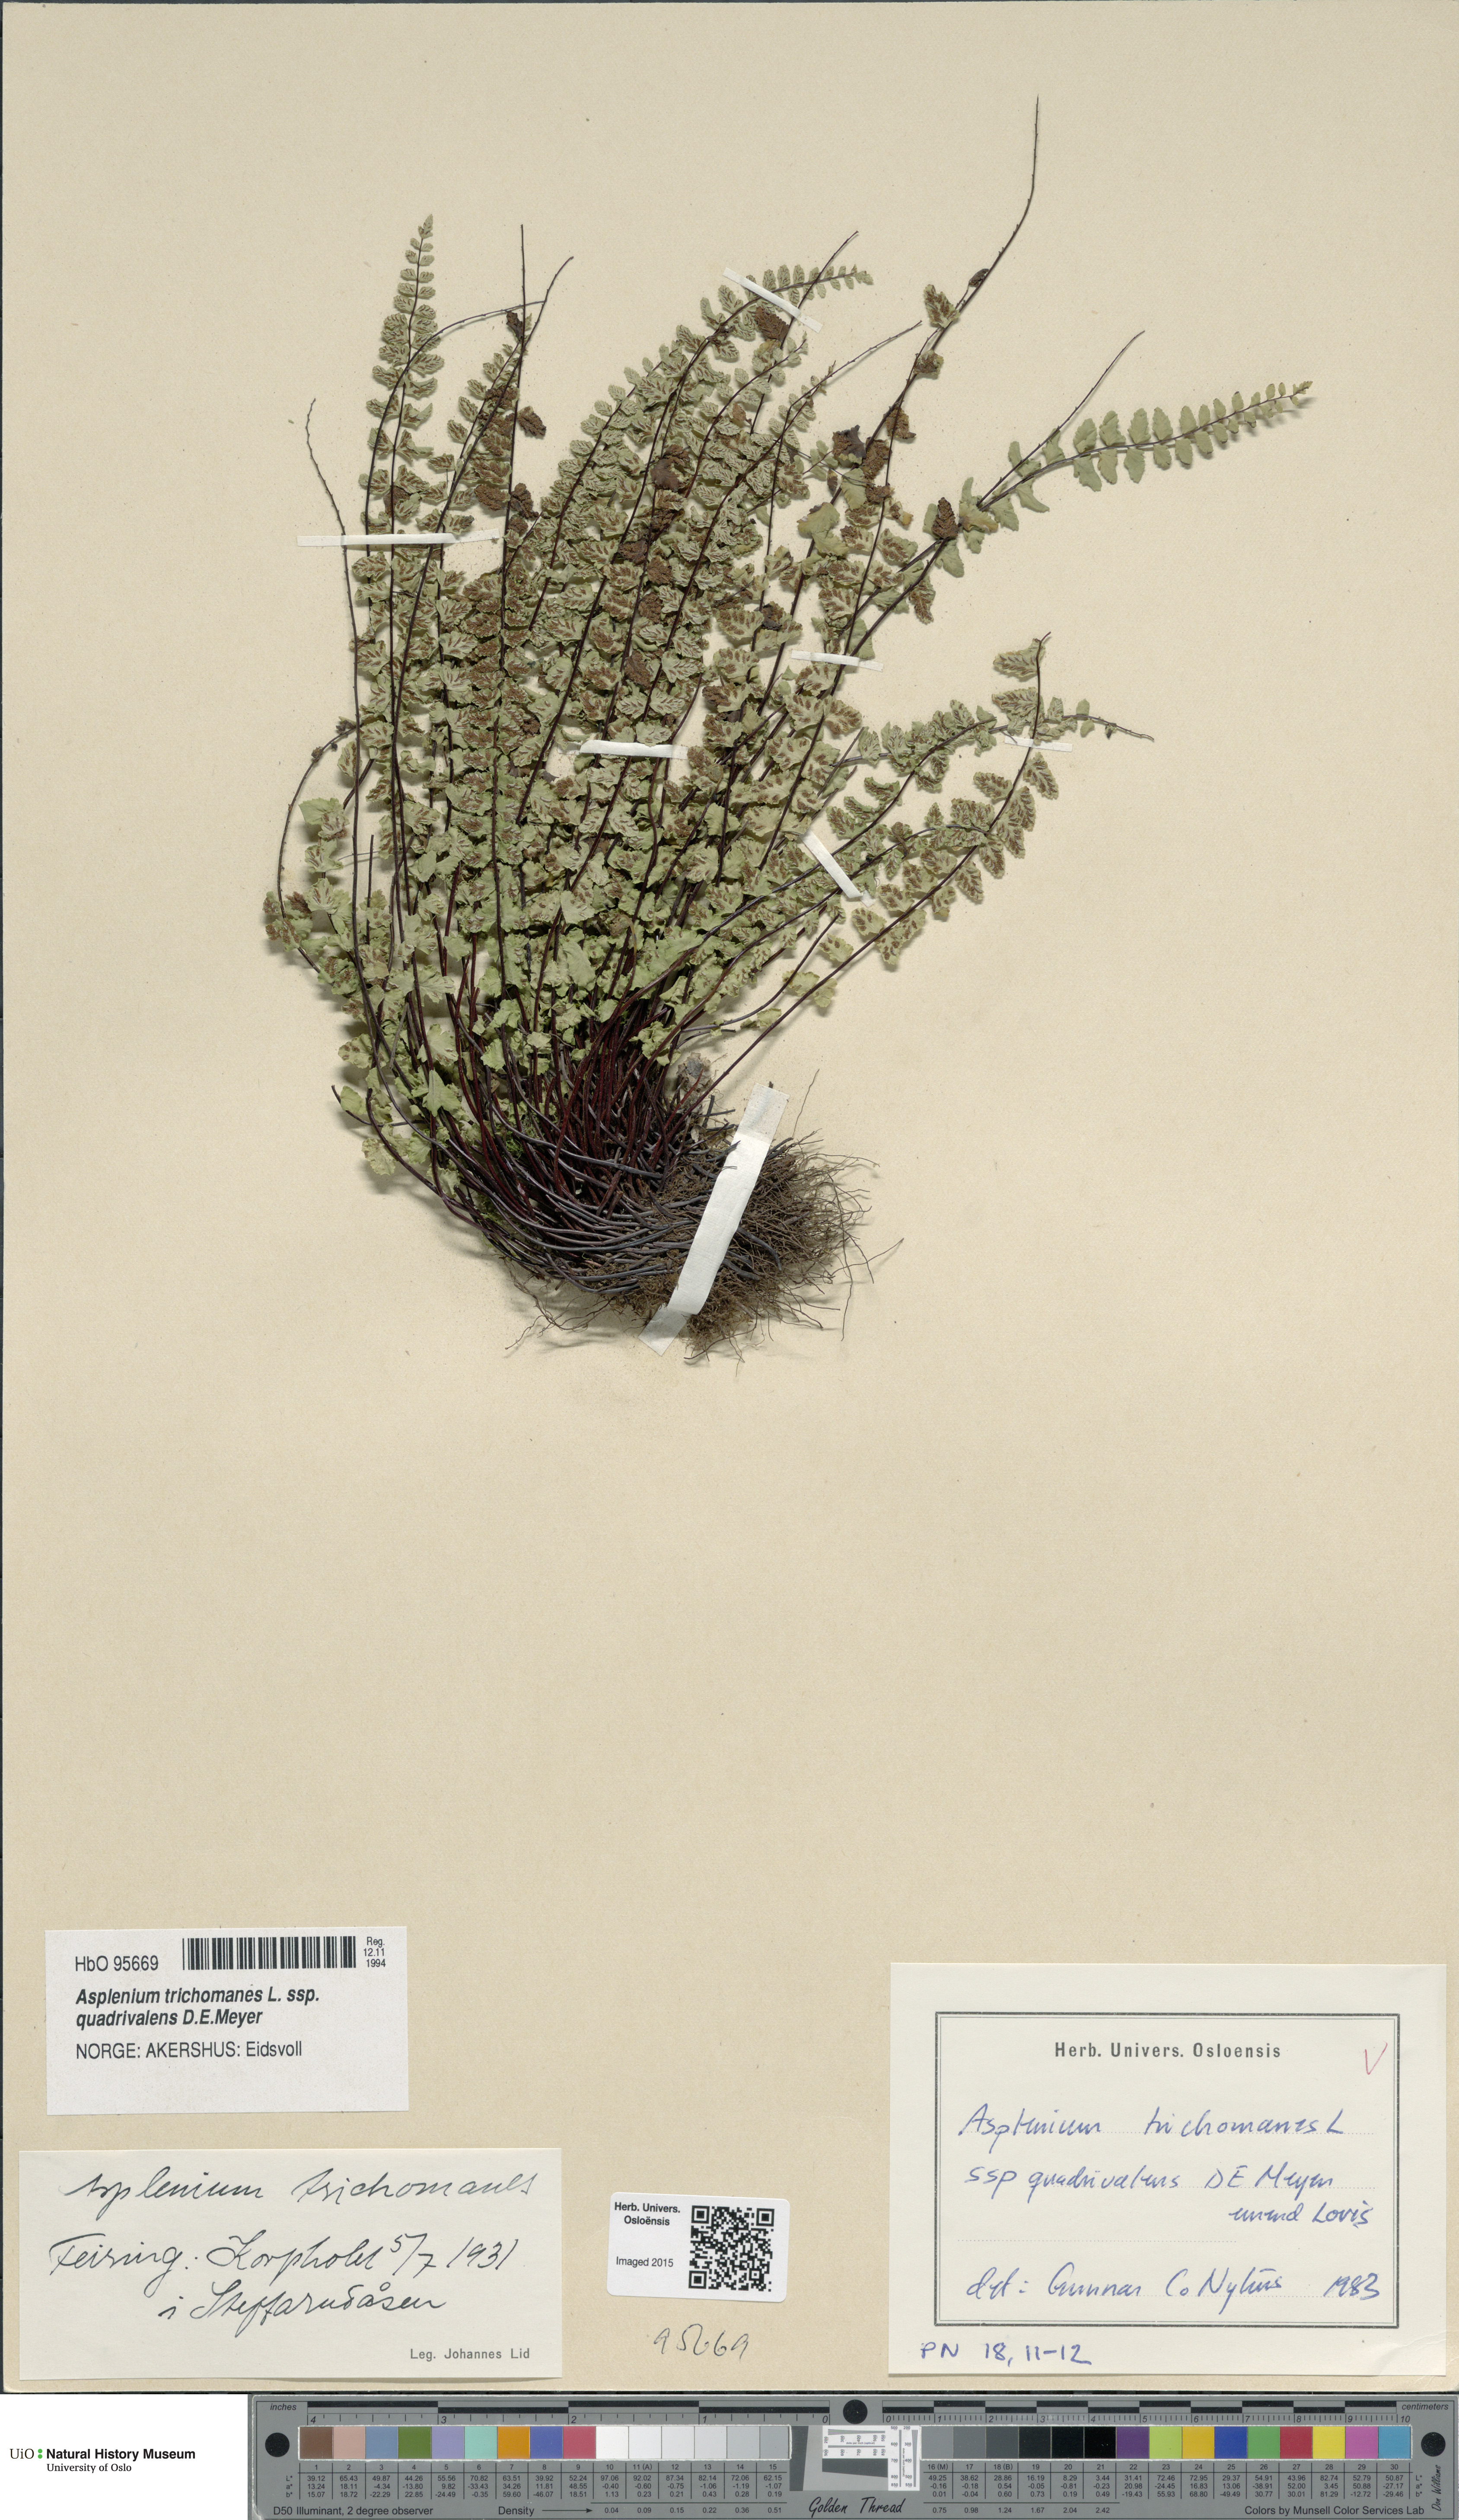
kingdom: Plantae
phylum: Tracheophyta
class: Polypodiopsida
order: Polypodiales
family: Aspleniaceae
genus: Asplenium
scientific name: Asplenium quadrivalens
